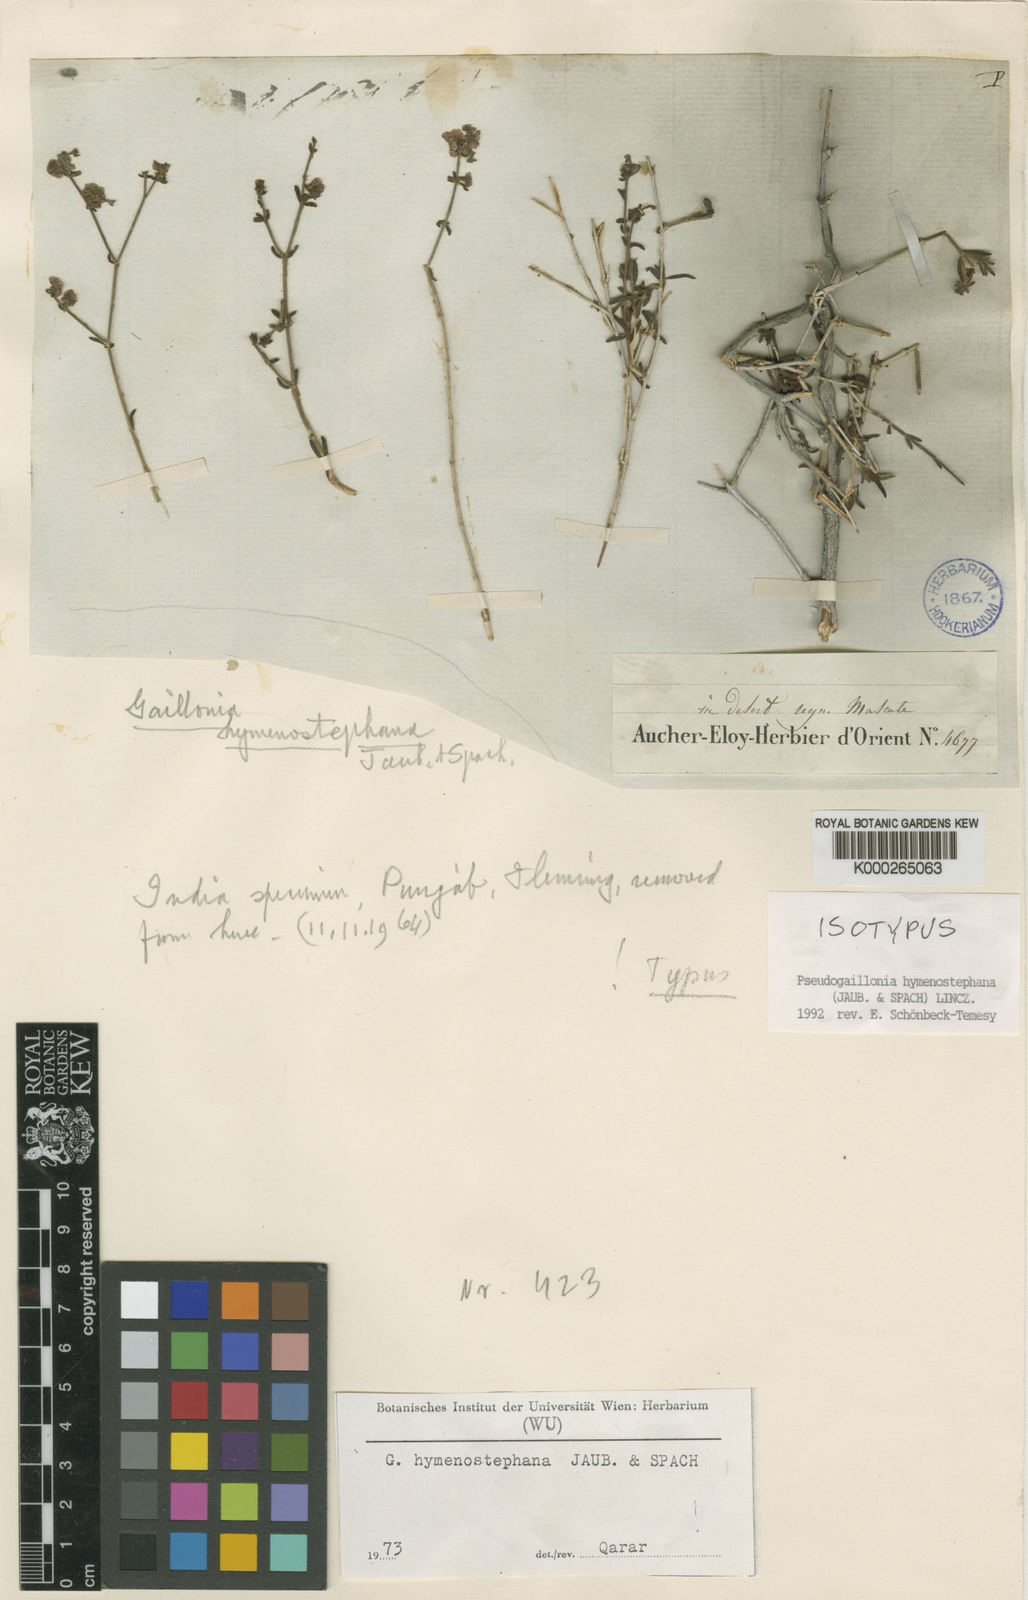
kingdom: Plantae
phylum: Tracheophyta
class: Magnoliopsida
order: Gentianales
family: Rubiaceae
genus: Plocama
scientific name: Plocama hymenostephana
